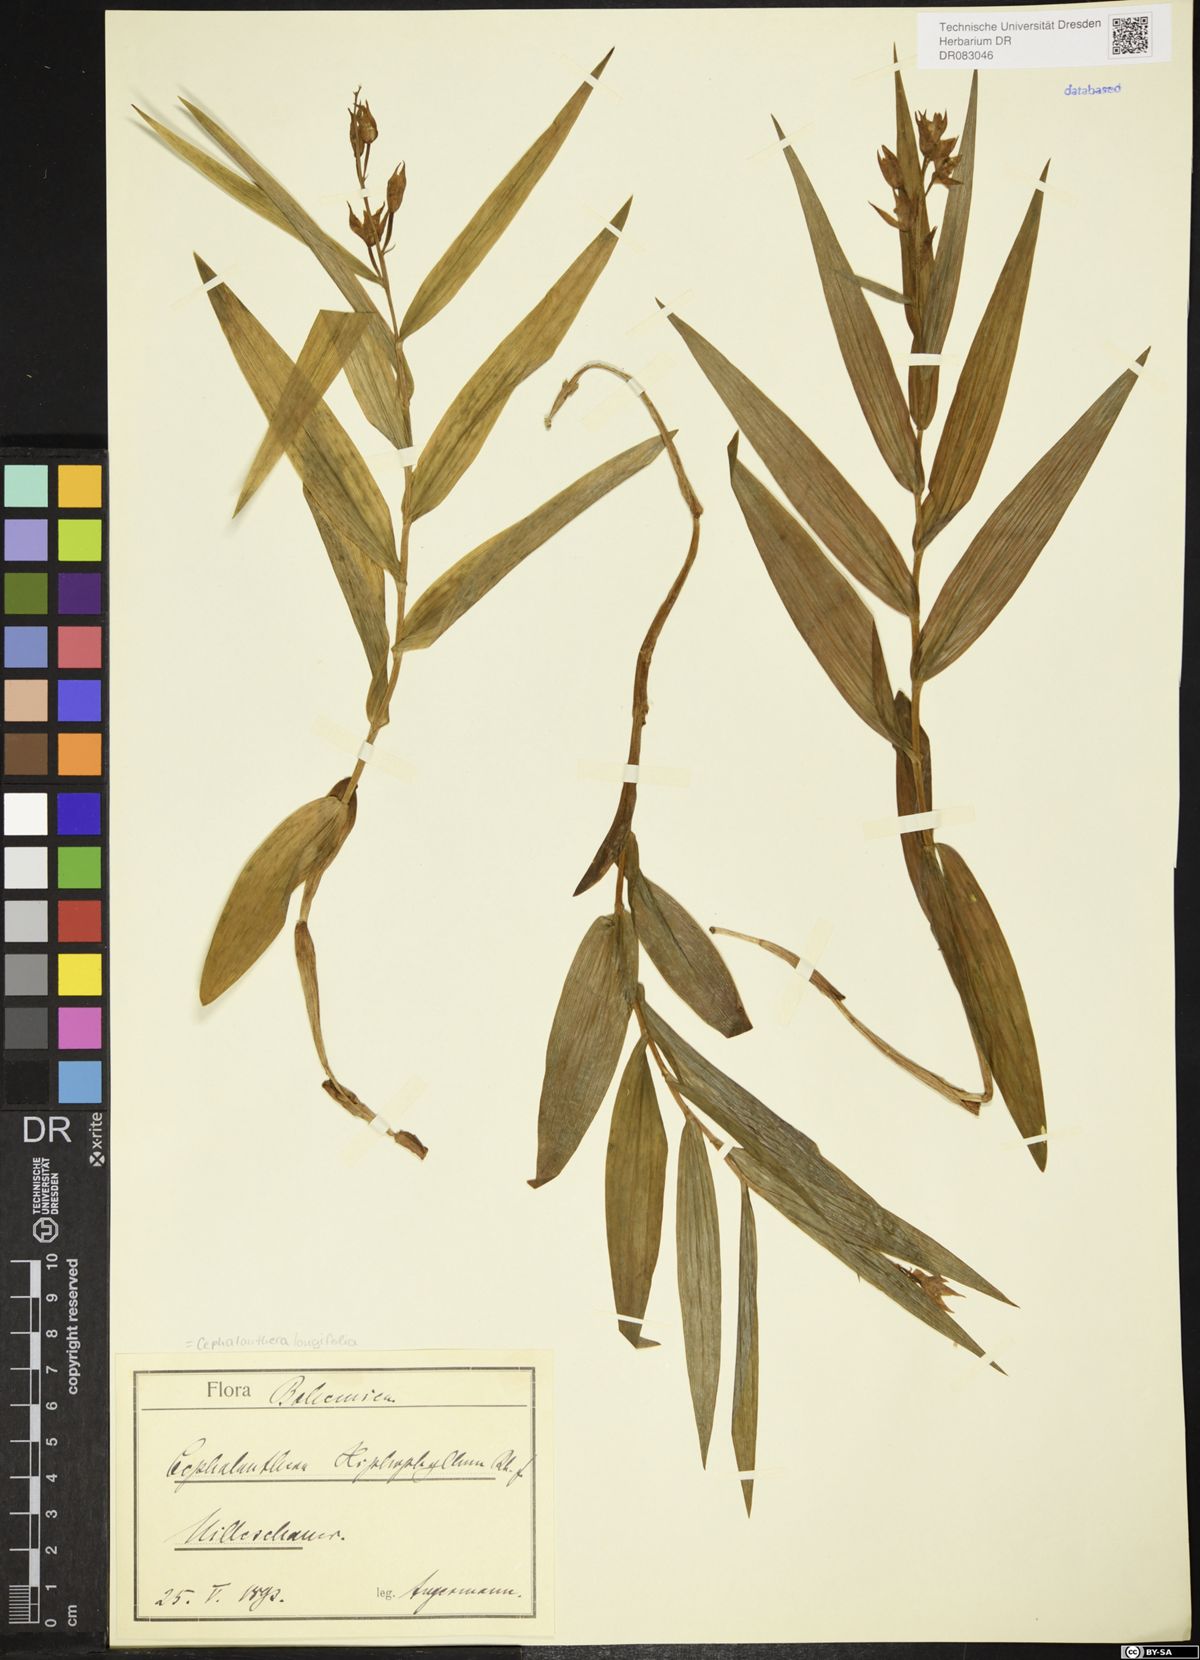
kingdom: Plantae
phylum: Tracheophyta
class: Liliopsida
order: Asparagales
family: Orchidaceae
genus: Cephalanthera
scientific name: Cephalanthera longifolia
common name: Narrow-leaved helleborine
